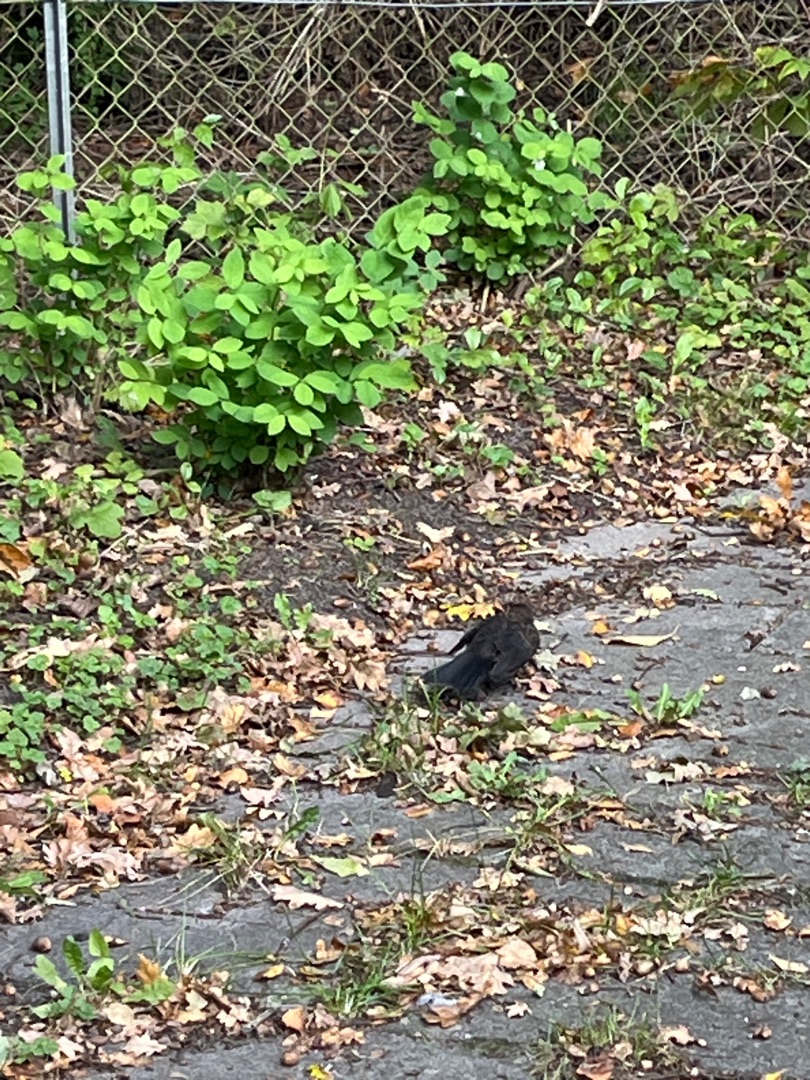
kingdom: Animalia
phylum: Chordata
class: Aves
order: Passeriformes
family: Turdidae
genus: Turdus
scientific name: Turdus merula
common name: Solsort
